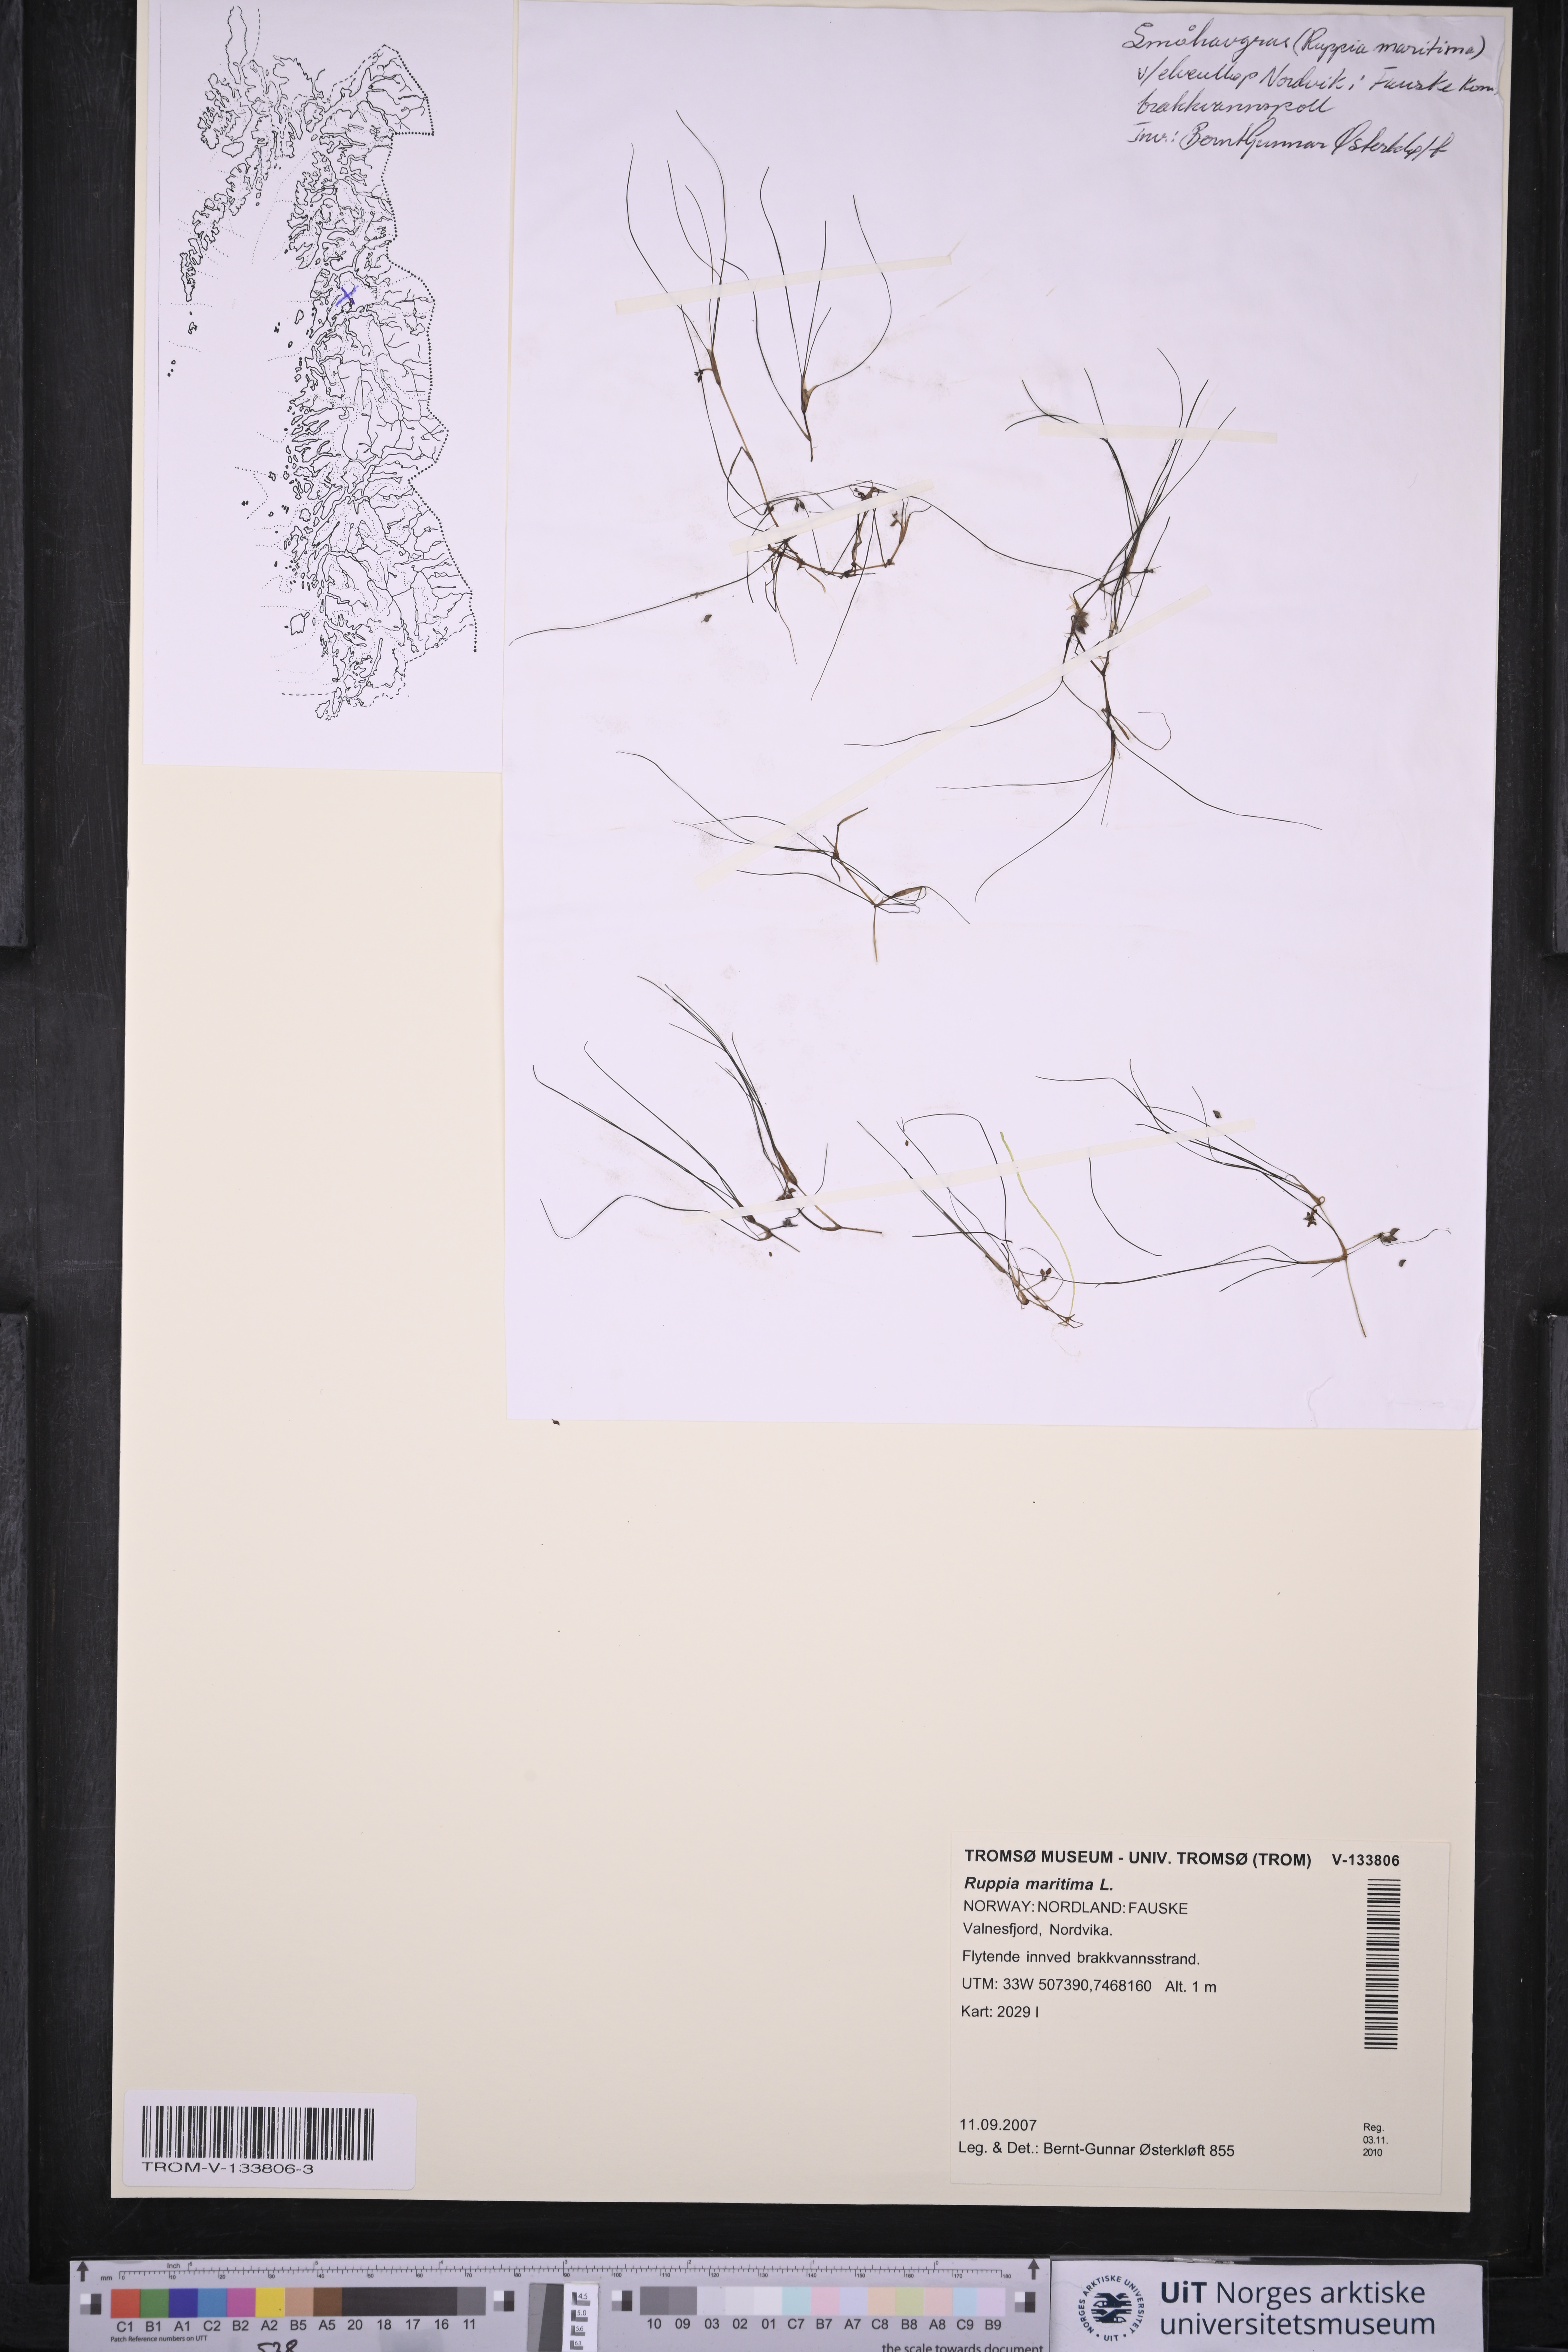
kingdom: Plantae
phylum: Tracheophyta
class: Liliopsida
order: Alismatales
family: Ruppiaceae
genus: Ruppia
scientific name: Ruppia maritima
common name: Beaked tasselweed
